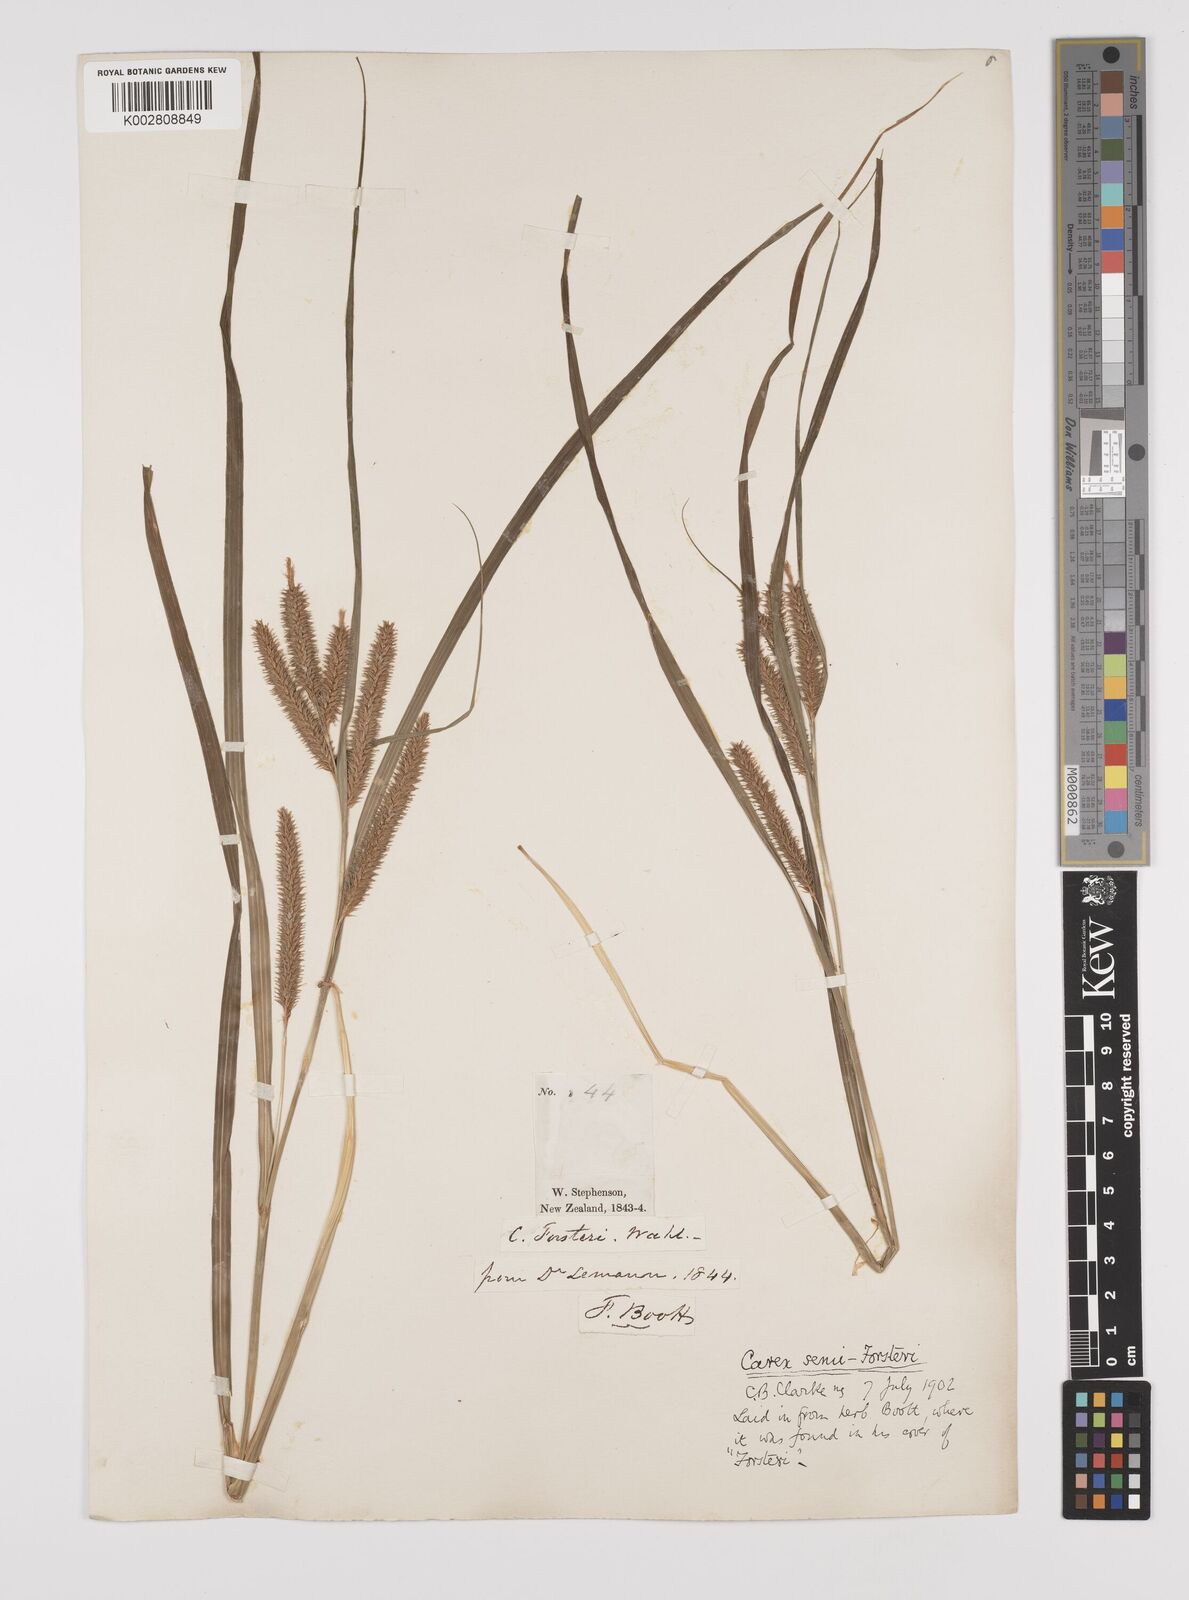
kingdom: Plantae
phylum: Tracheophyta
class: Liliopsida
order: Poales
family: Cyperaceae
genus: Carex
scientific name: Carex forsteri
